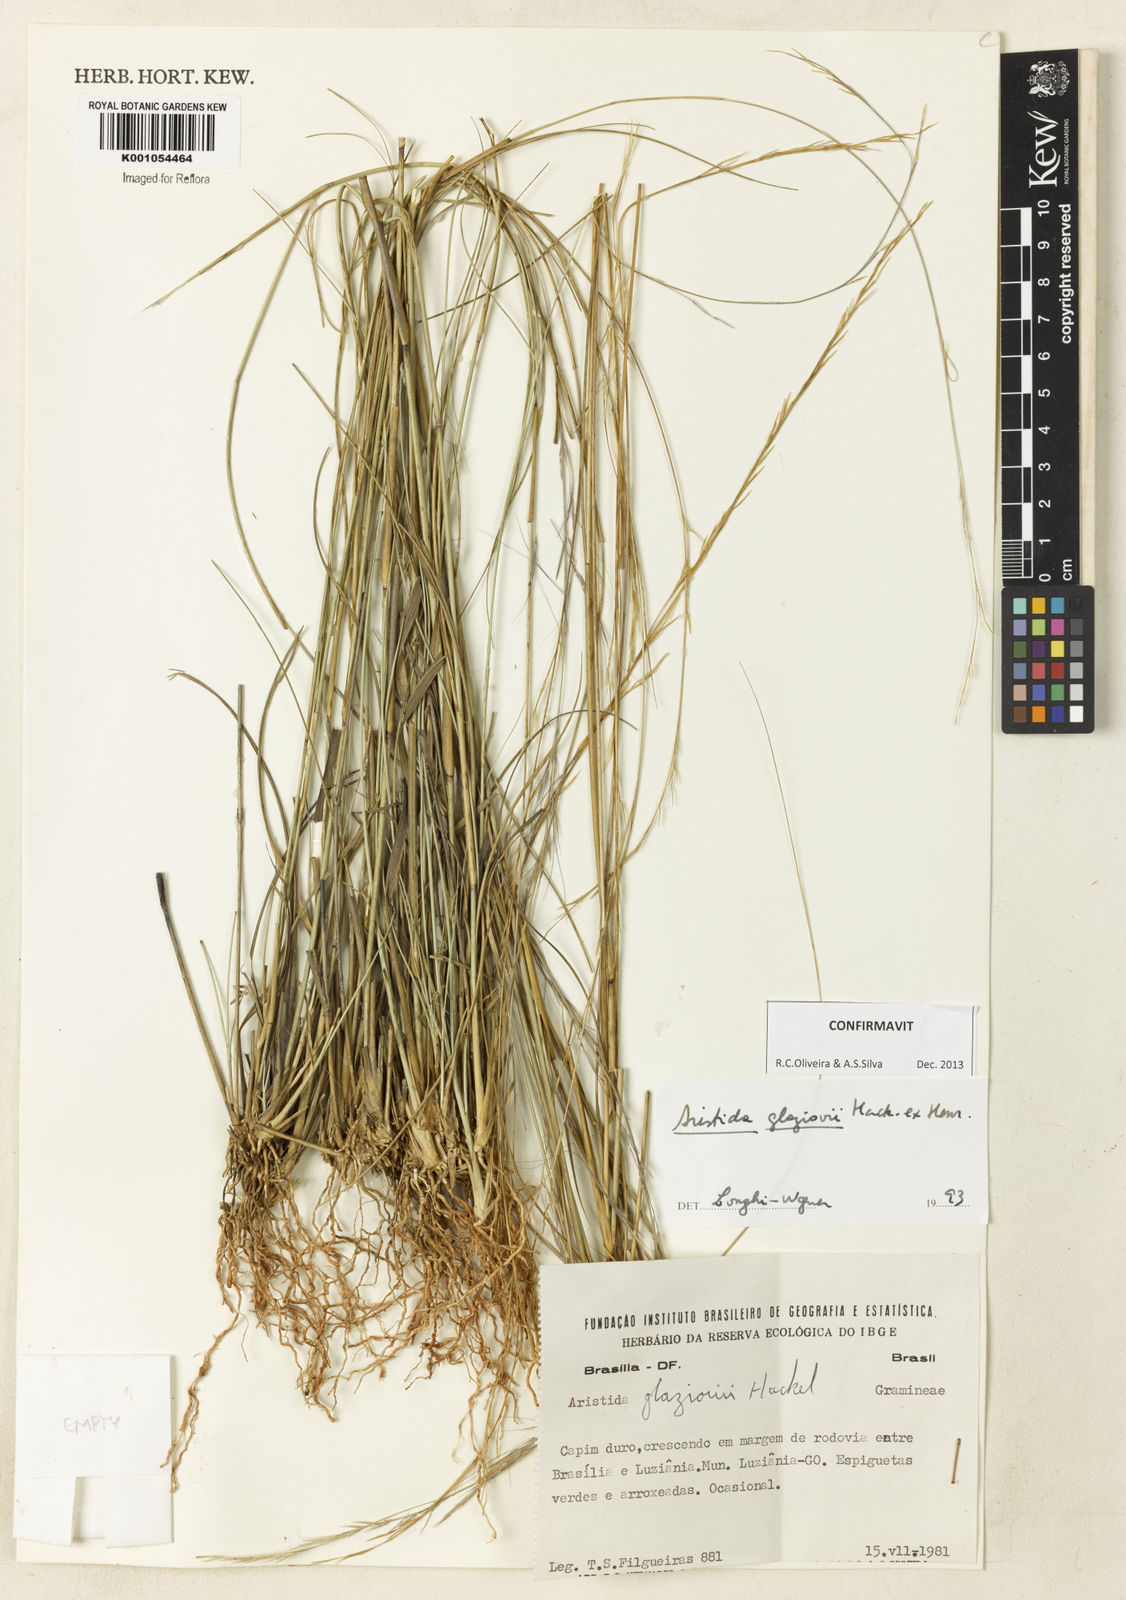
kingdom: Plantae
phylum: Tracheophyta
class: Liliopsida
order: Poales
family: Poaceae
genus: Aristida
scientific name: Aristida glaziovii
